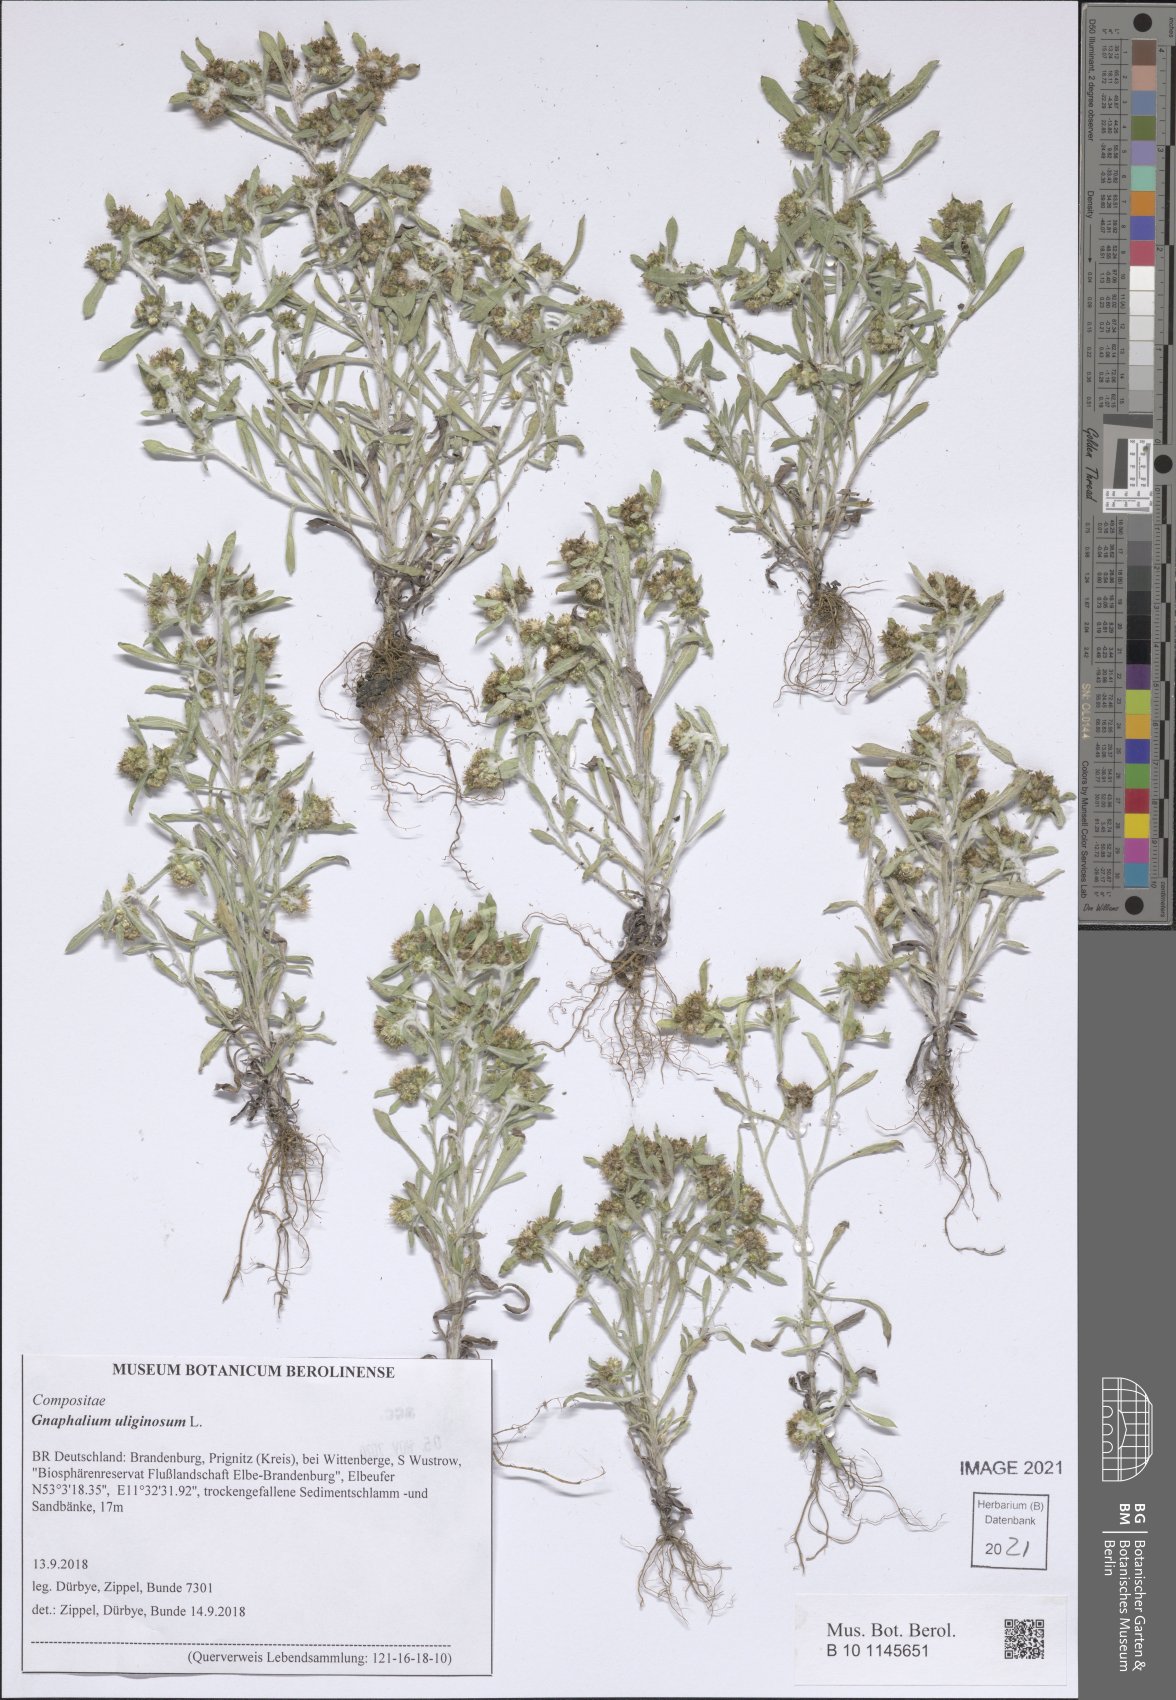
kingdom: Plantae
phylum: Tracheophyta
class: Magnoliopsida
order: Asterales
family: Asteraceae
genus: Gnaphalium
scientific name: Gnaphalium uliginosum
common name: Marsh cudweed
